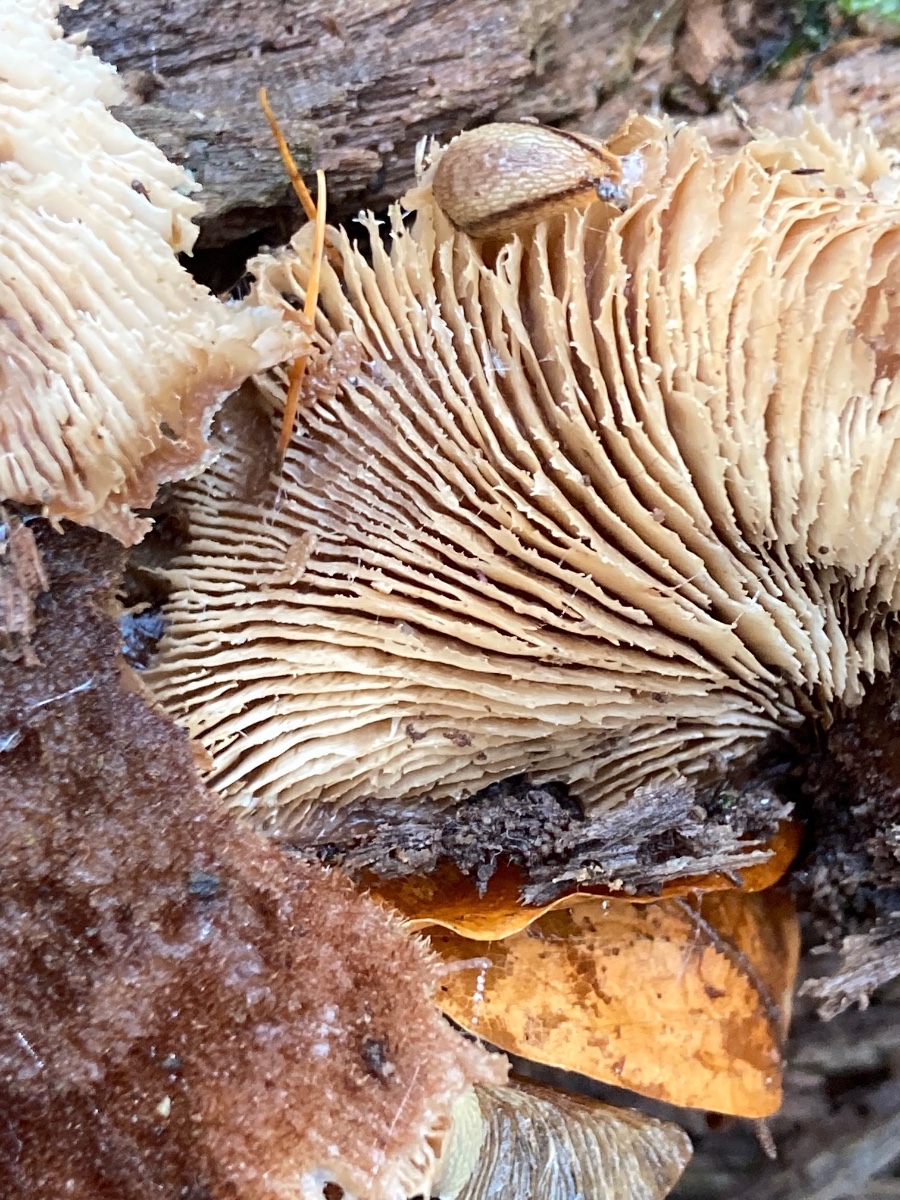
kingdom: Fungi
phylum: Basidiomycota
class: Agaricomycetes
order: Russulales
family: Auriscalpiaceae
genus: Lentinellus
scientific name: Lentinellus ursinus
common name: børstehåret savbladhat
